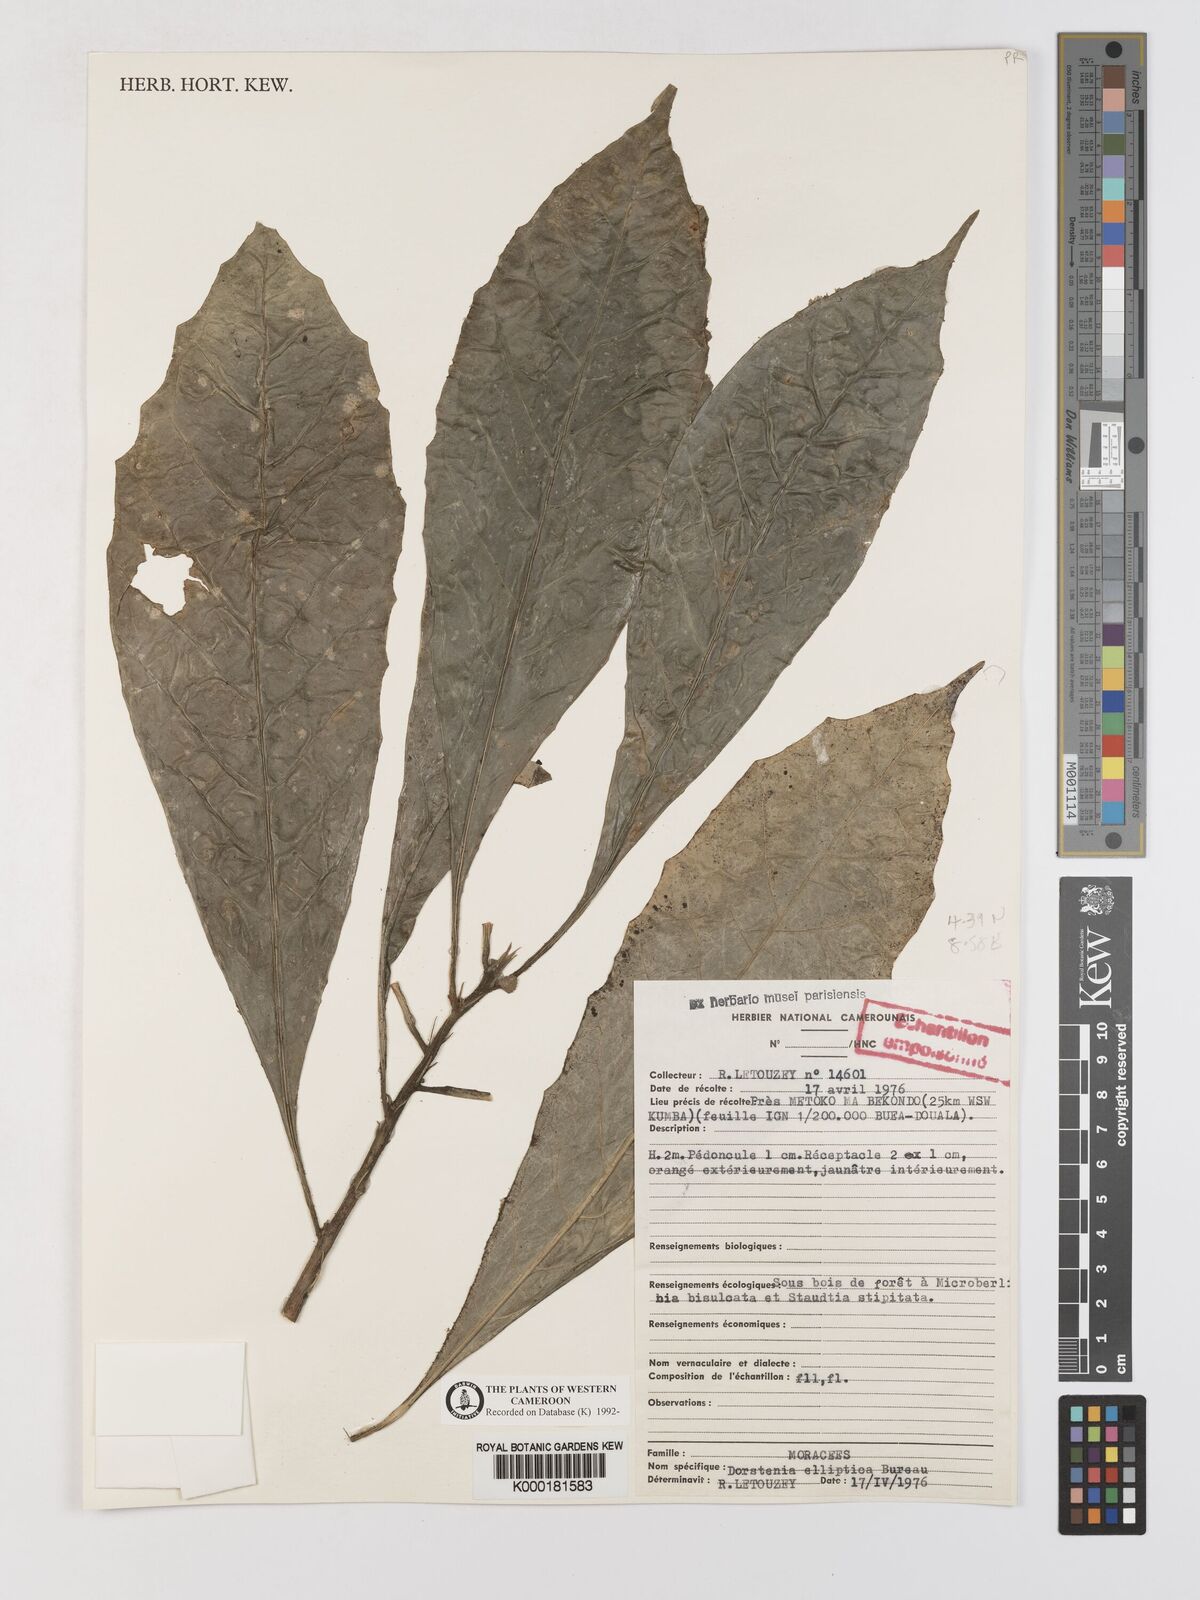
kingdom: Plantae
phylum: Tracheophyta
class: Magnoliopsida
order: Rosales
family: Moraceae
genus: Dorstenia
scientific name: Dorstenia elliptica
